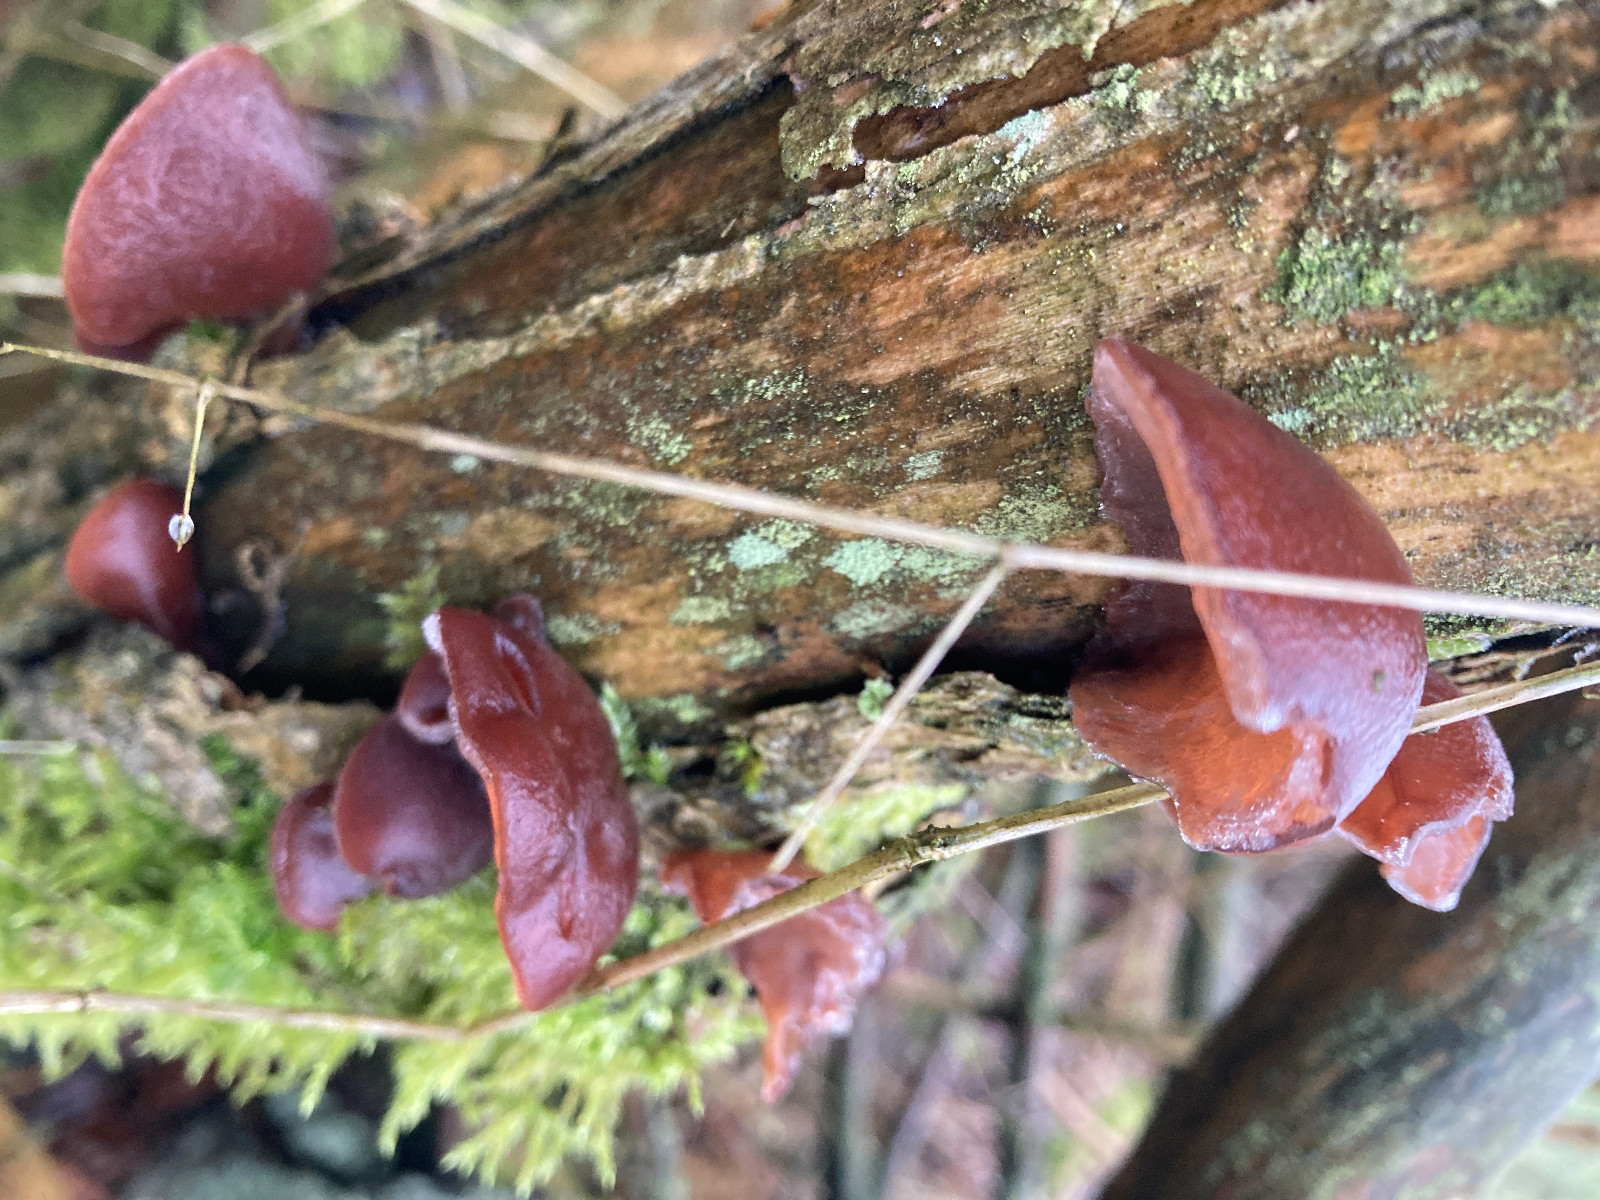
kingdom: Fungi
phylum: Basidiomycota
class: Agaricomycetes
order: Auriculariales
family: Auriculariaceae
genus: Auricularia
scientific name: Auricularia auricula-judae
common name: almindelig judasøre
